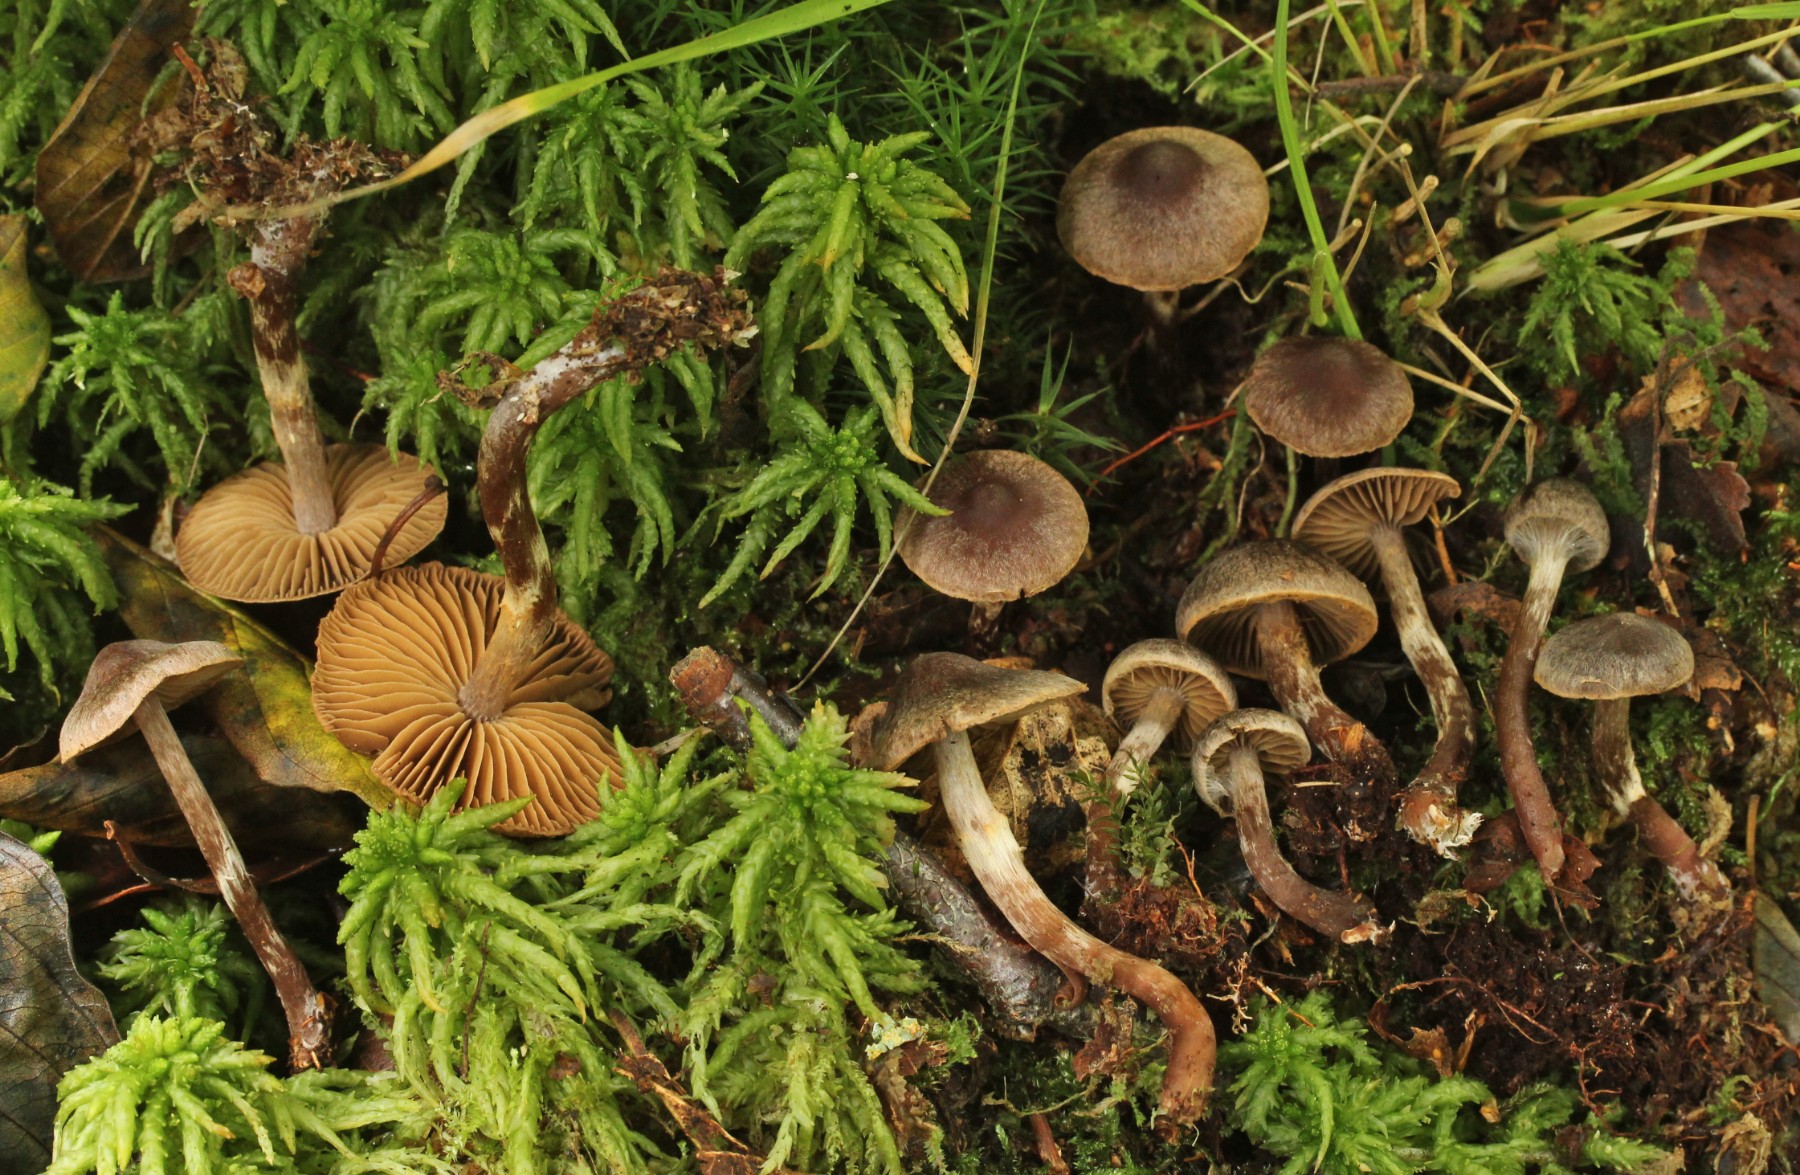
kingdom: Fungi
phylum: Basidiomycota
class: Agaricomycetes
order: Agaricales
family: Cortinariaceae
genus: Cortinarius
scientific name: Cortinarius umbrinolens
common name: mørk slørhat
